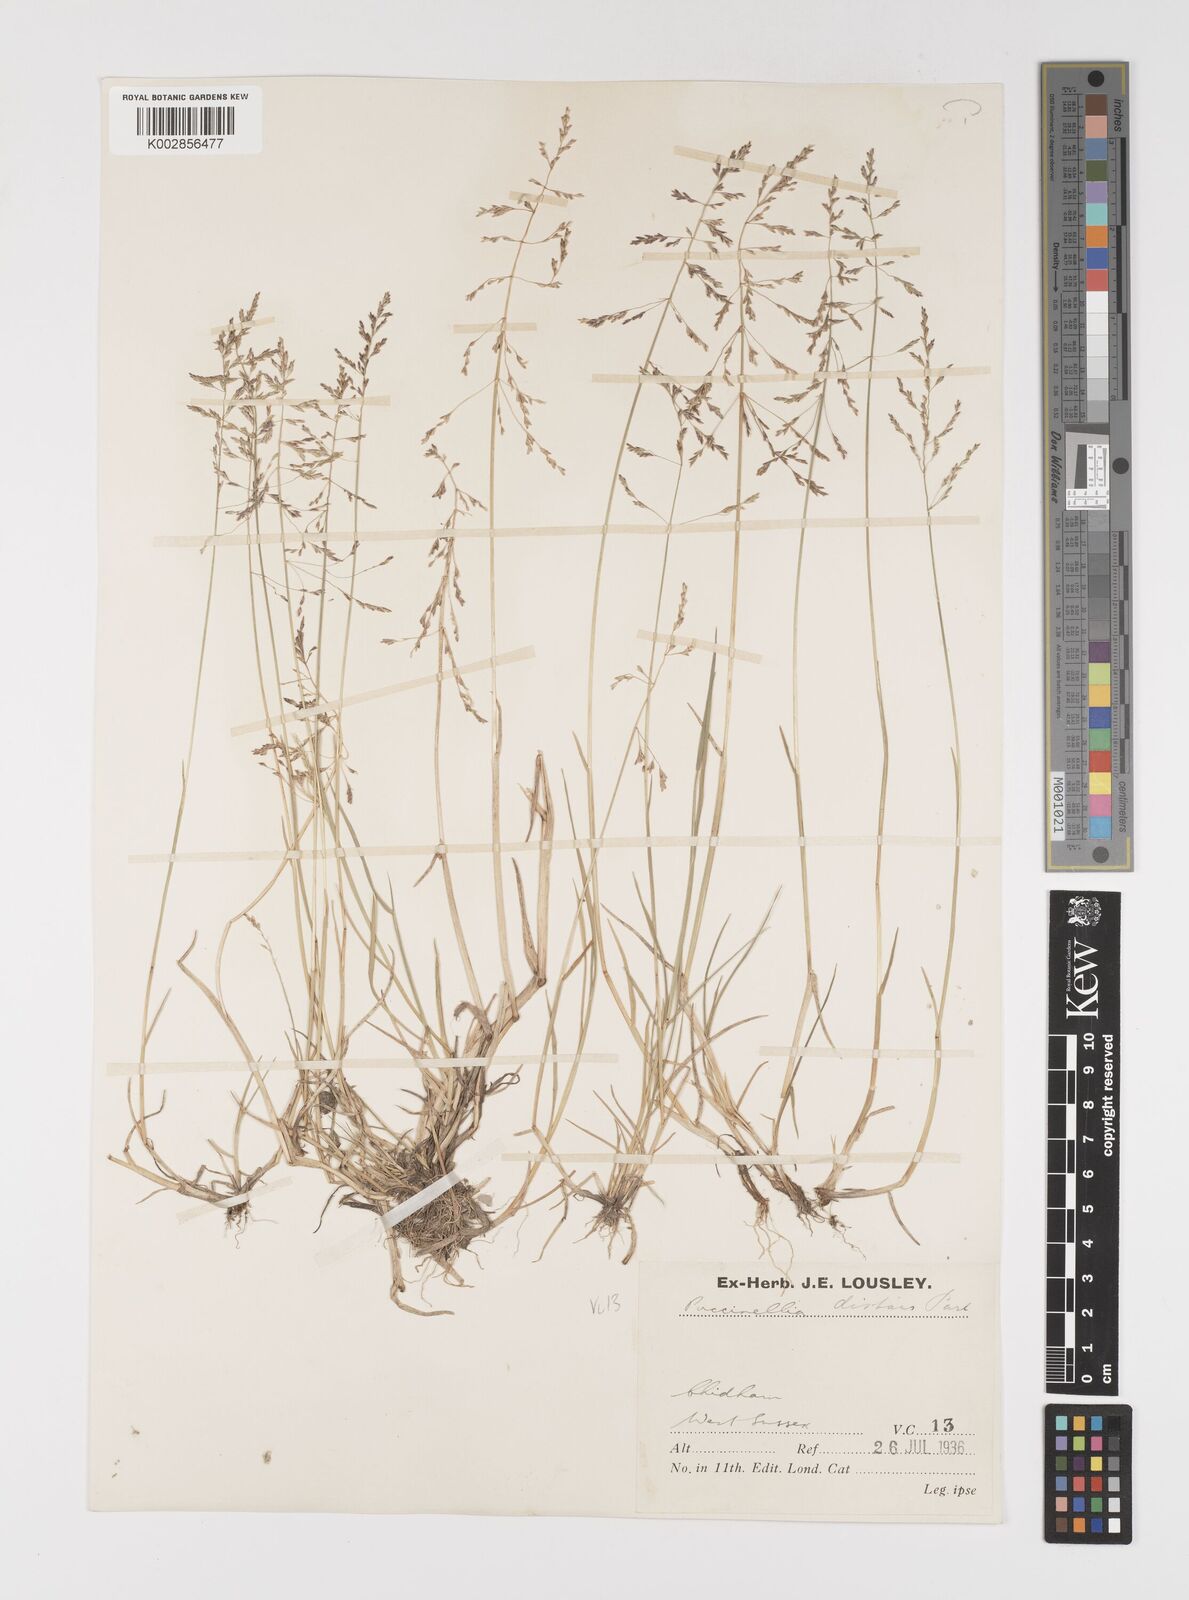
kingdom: Plantae
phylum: Tracheophyta
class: Liliopsida
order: Poales
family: Poaceae
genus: Puccinellia
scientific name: Puccinellia distans
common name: Weeping alkaligrass
